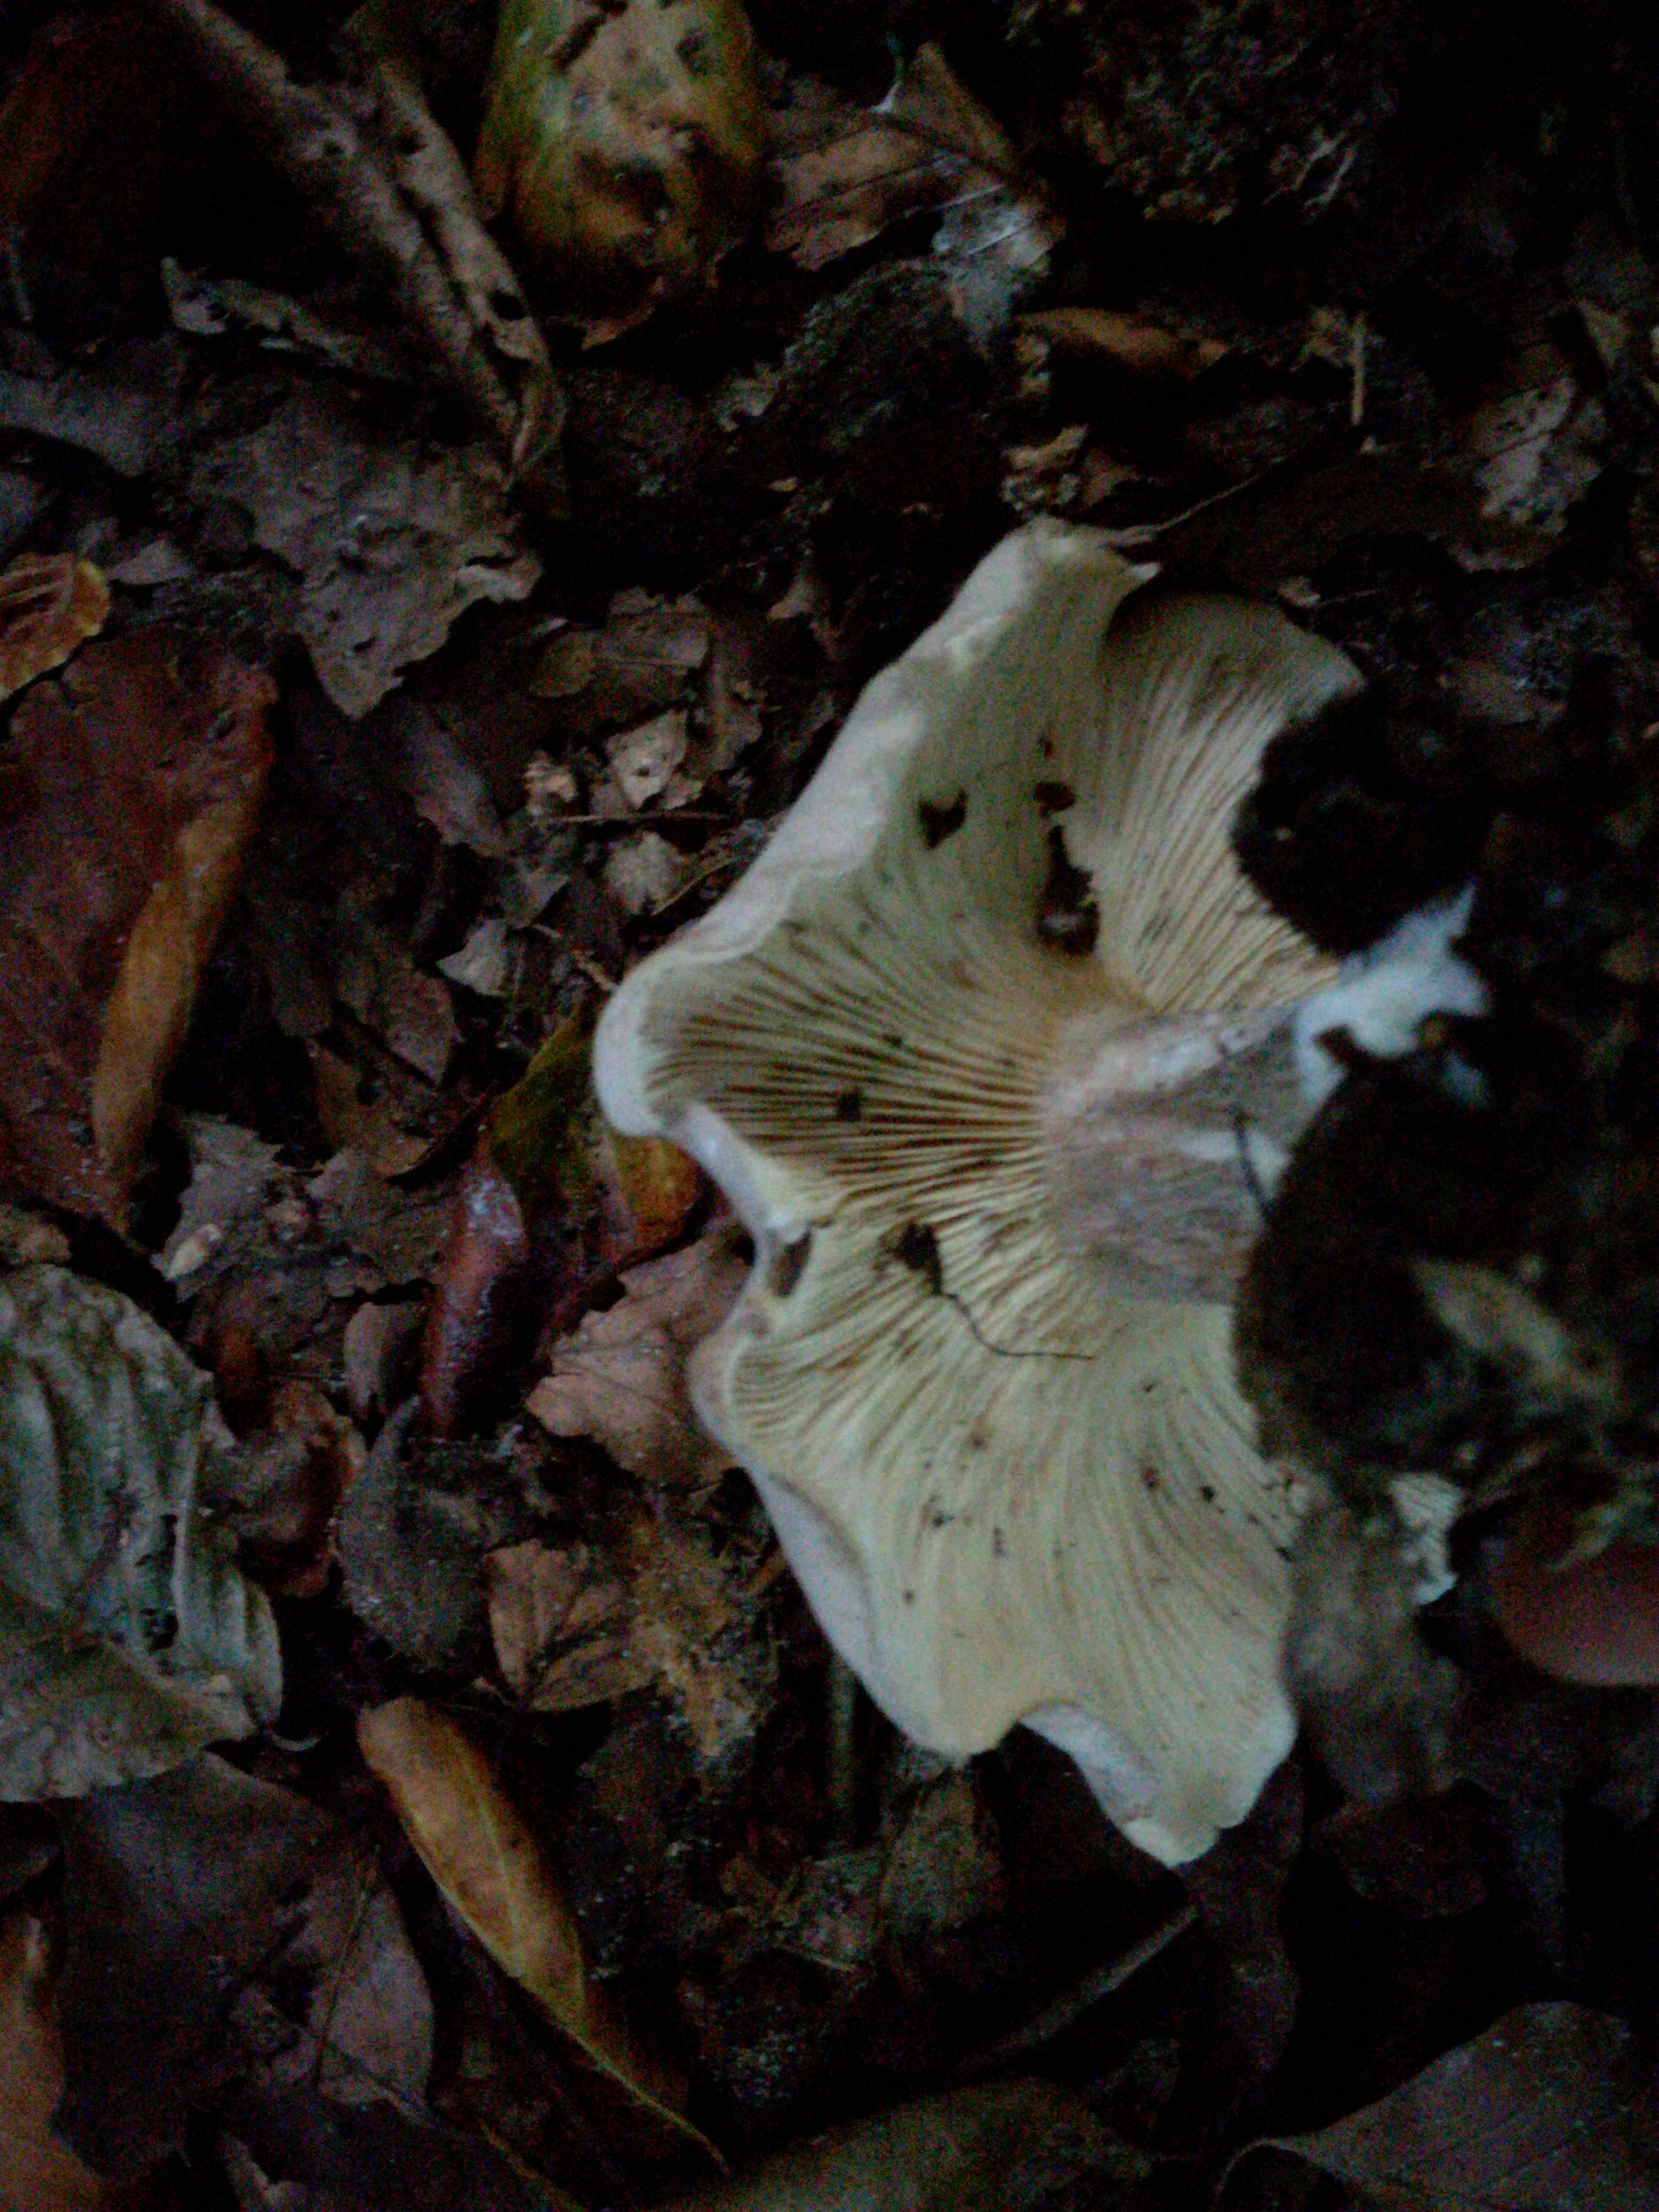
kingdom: Fungi
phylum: Basidiomycota
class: Agaricomycetes
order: Agaricales
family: Tricholomataceae
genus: Clitocybe
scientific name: Clitocybe nebularis
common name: tåge-tragthat
